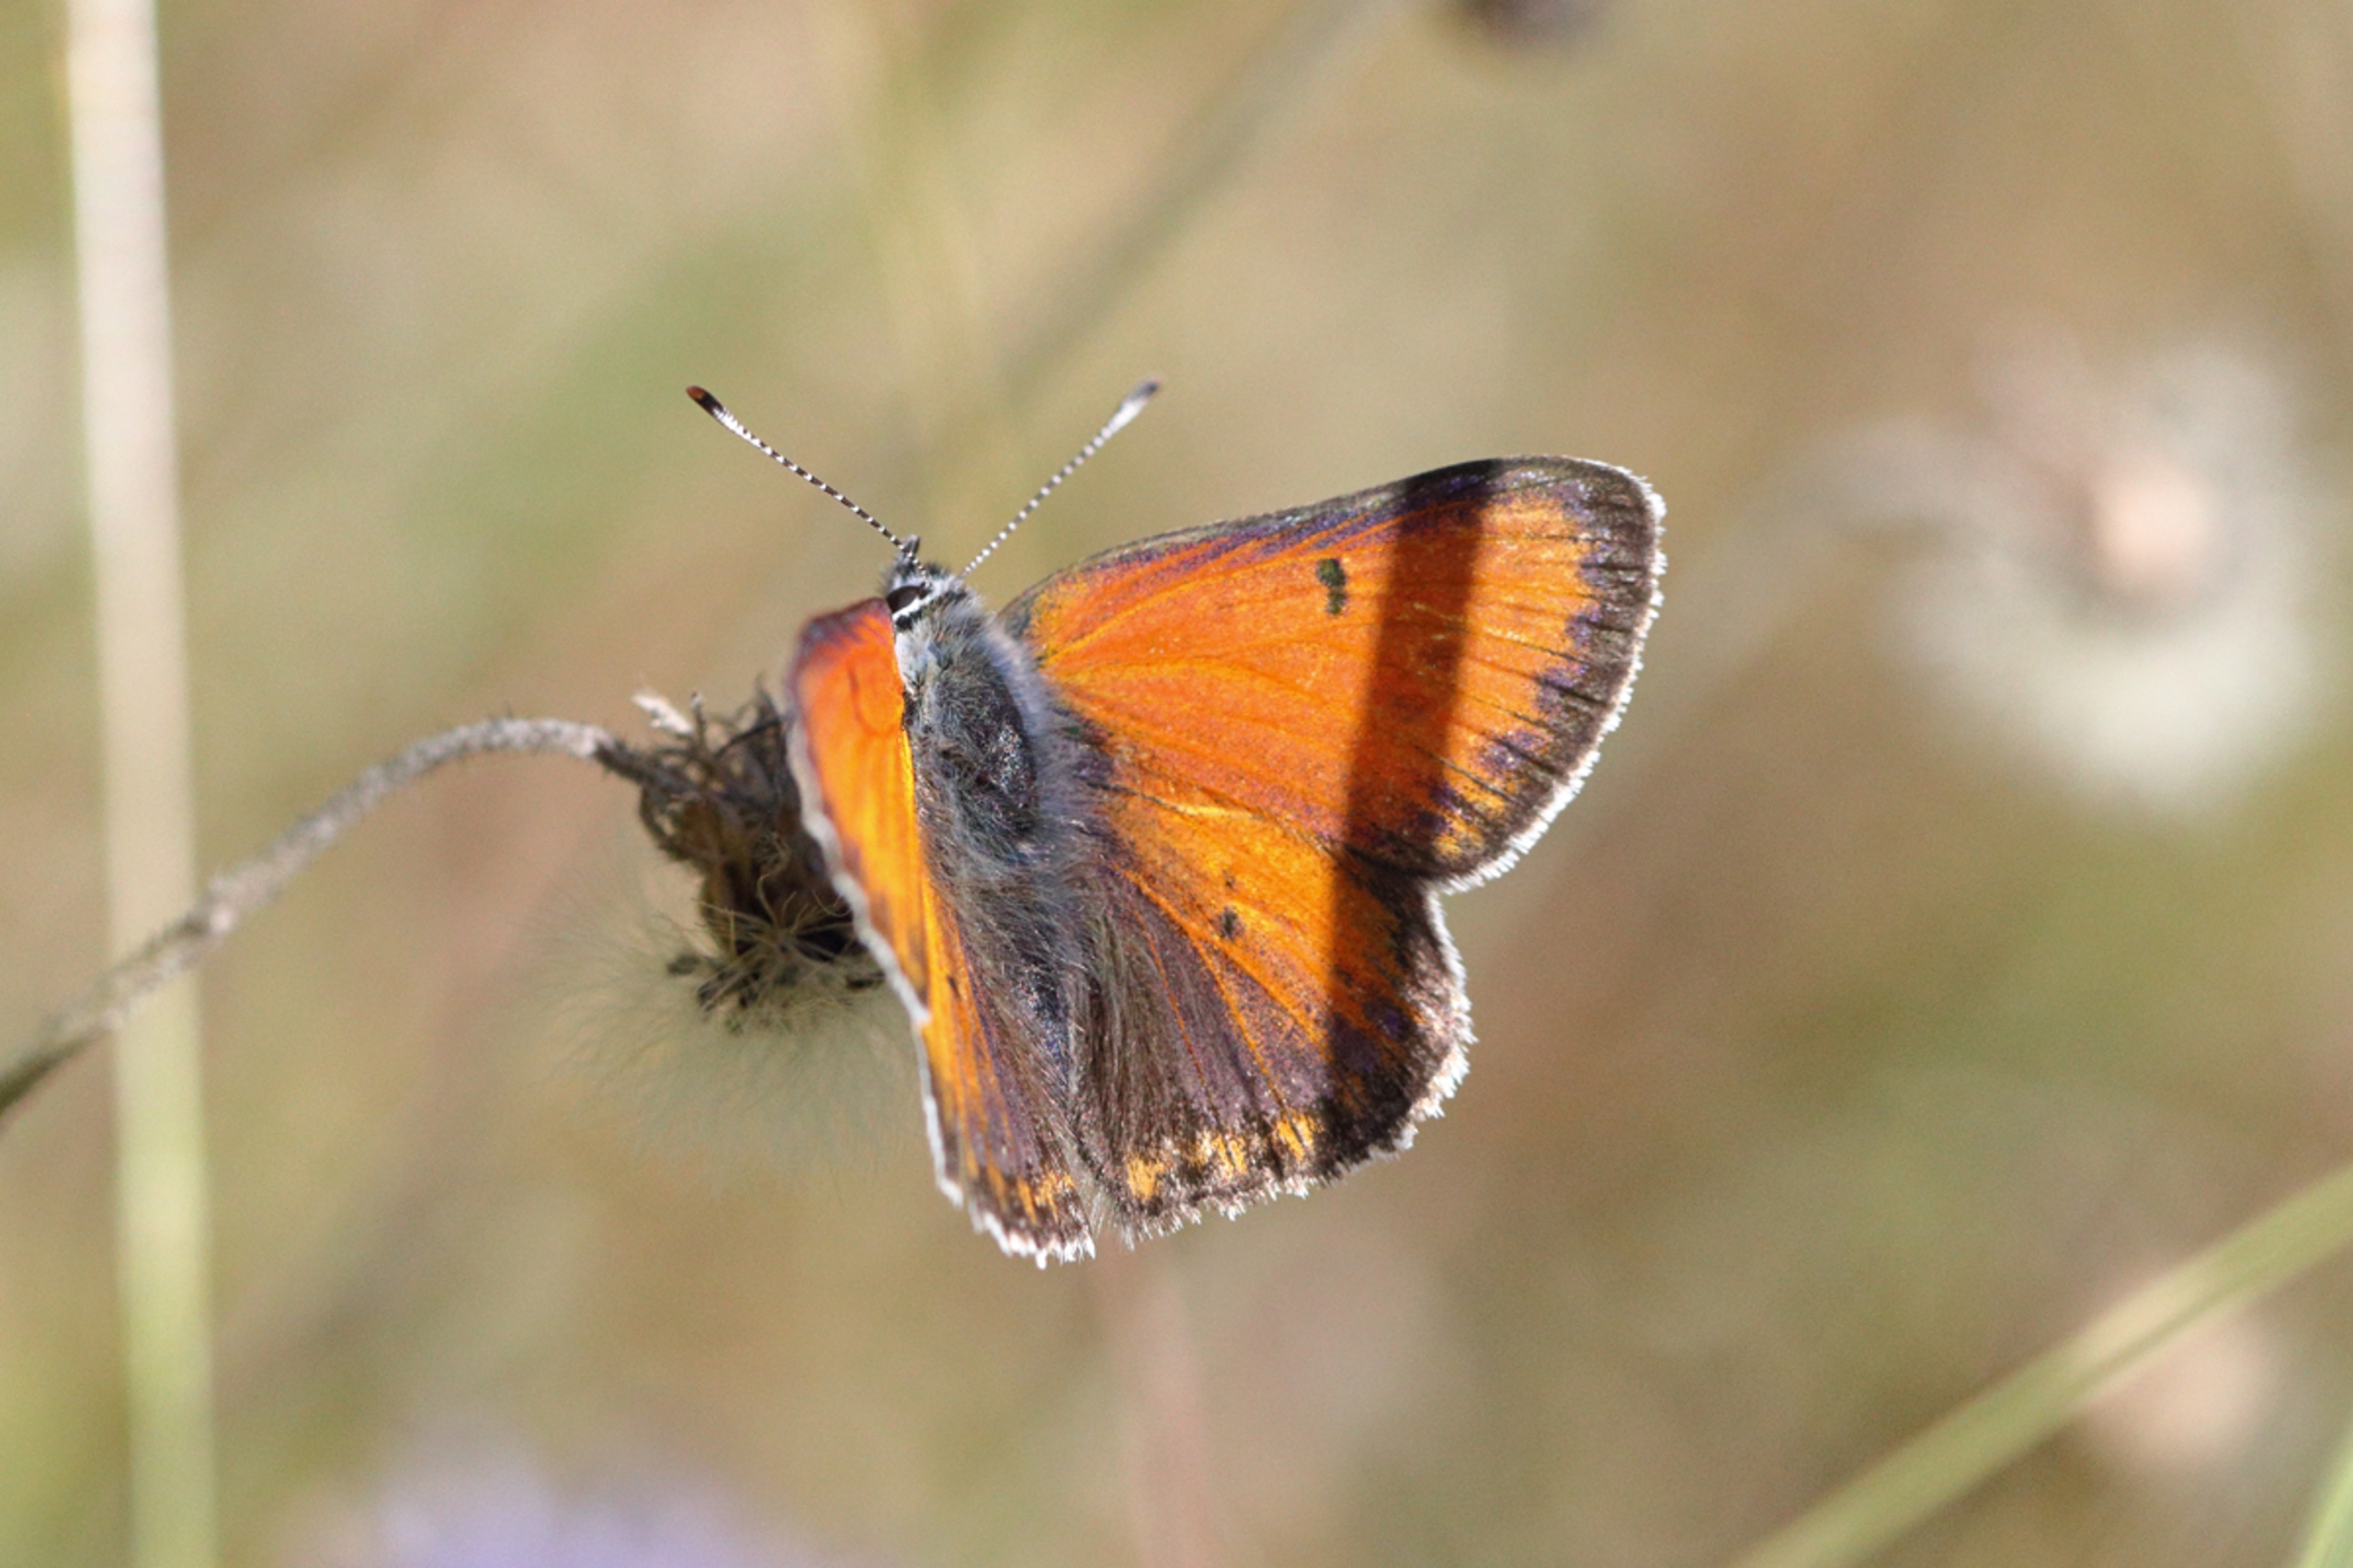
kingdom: Animalia
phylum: Arthropoda
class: Insecta
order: Lepidoptera
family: Lycaenidae
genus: Palaeochrysophanus
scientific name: Palaeochrysophanus hippothoe
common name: Violetrandet ildfugl
